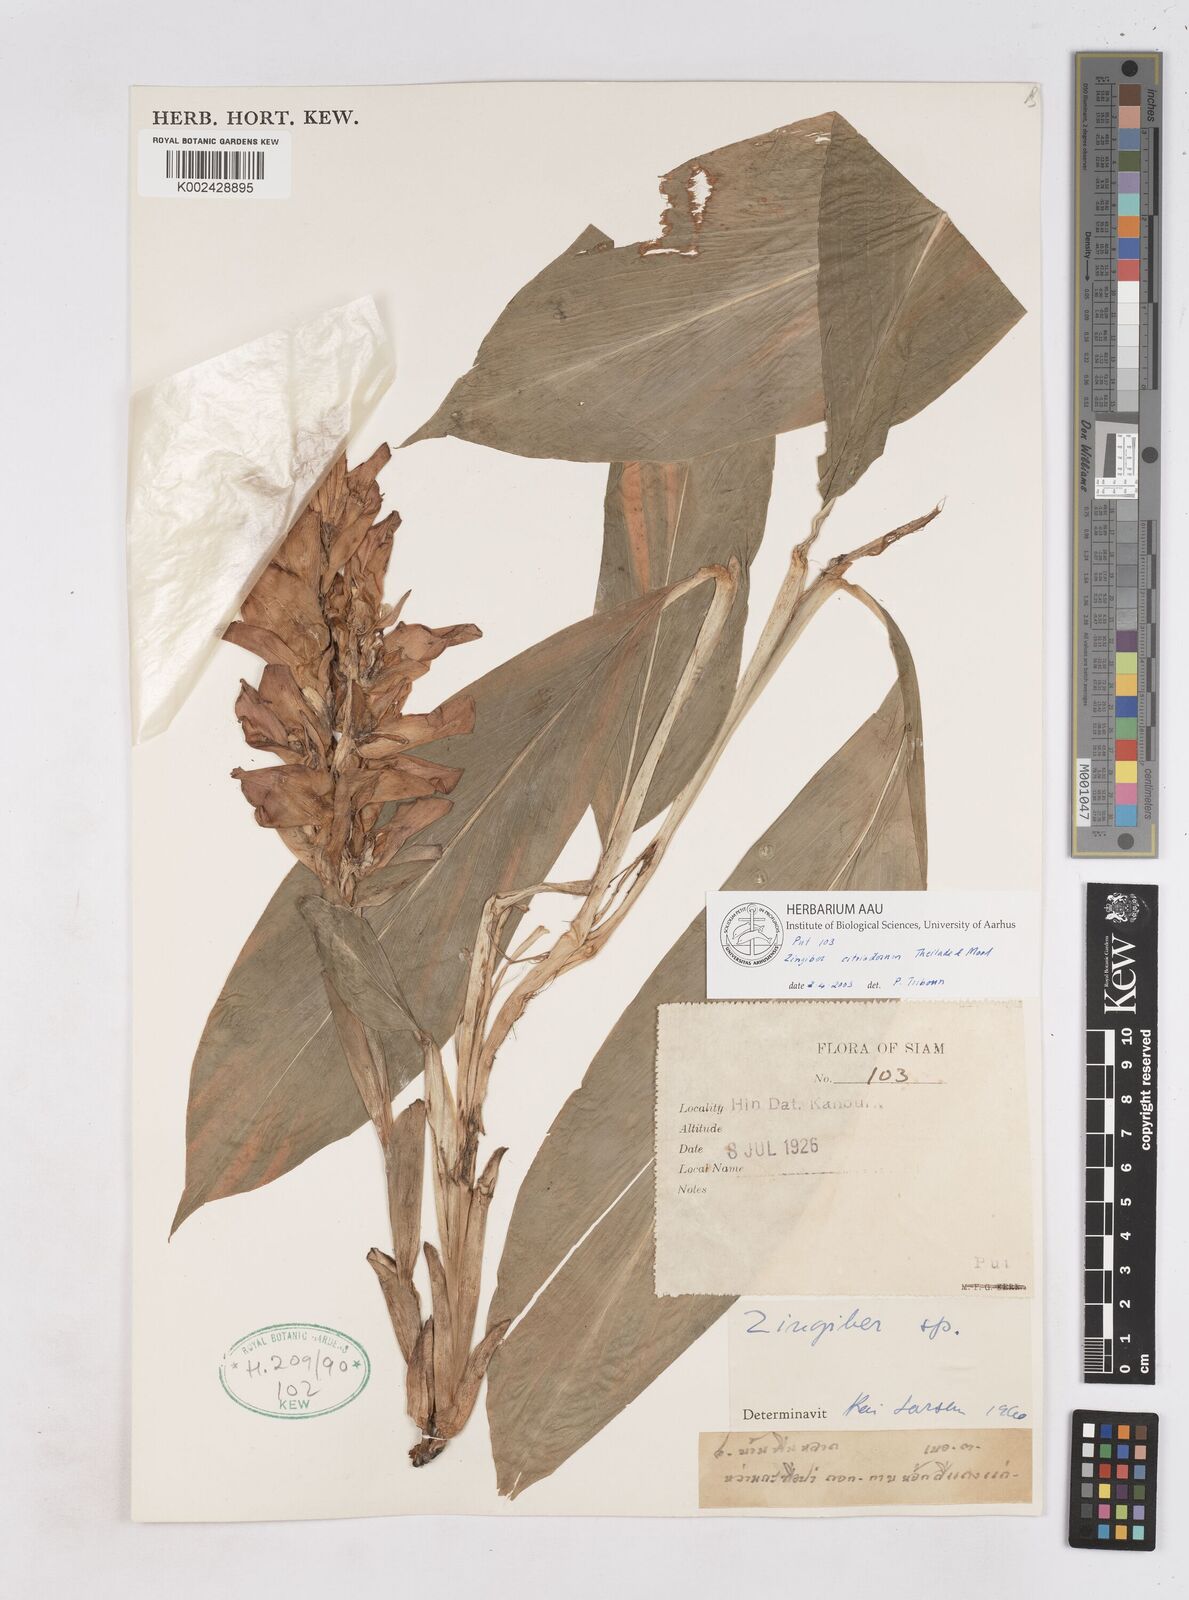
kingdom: Plantae
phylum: Tracheophyta
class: Liliopsida
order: Zingiberales
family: Zingiberaceae
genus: Zingiber
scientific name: Zingiber citriodorum
